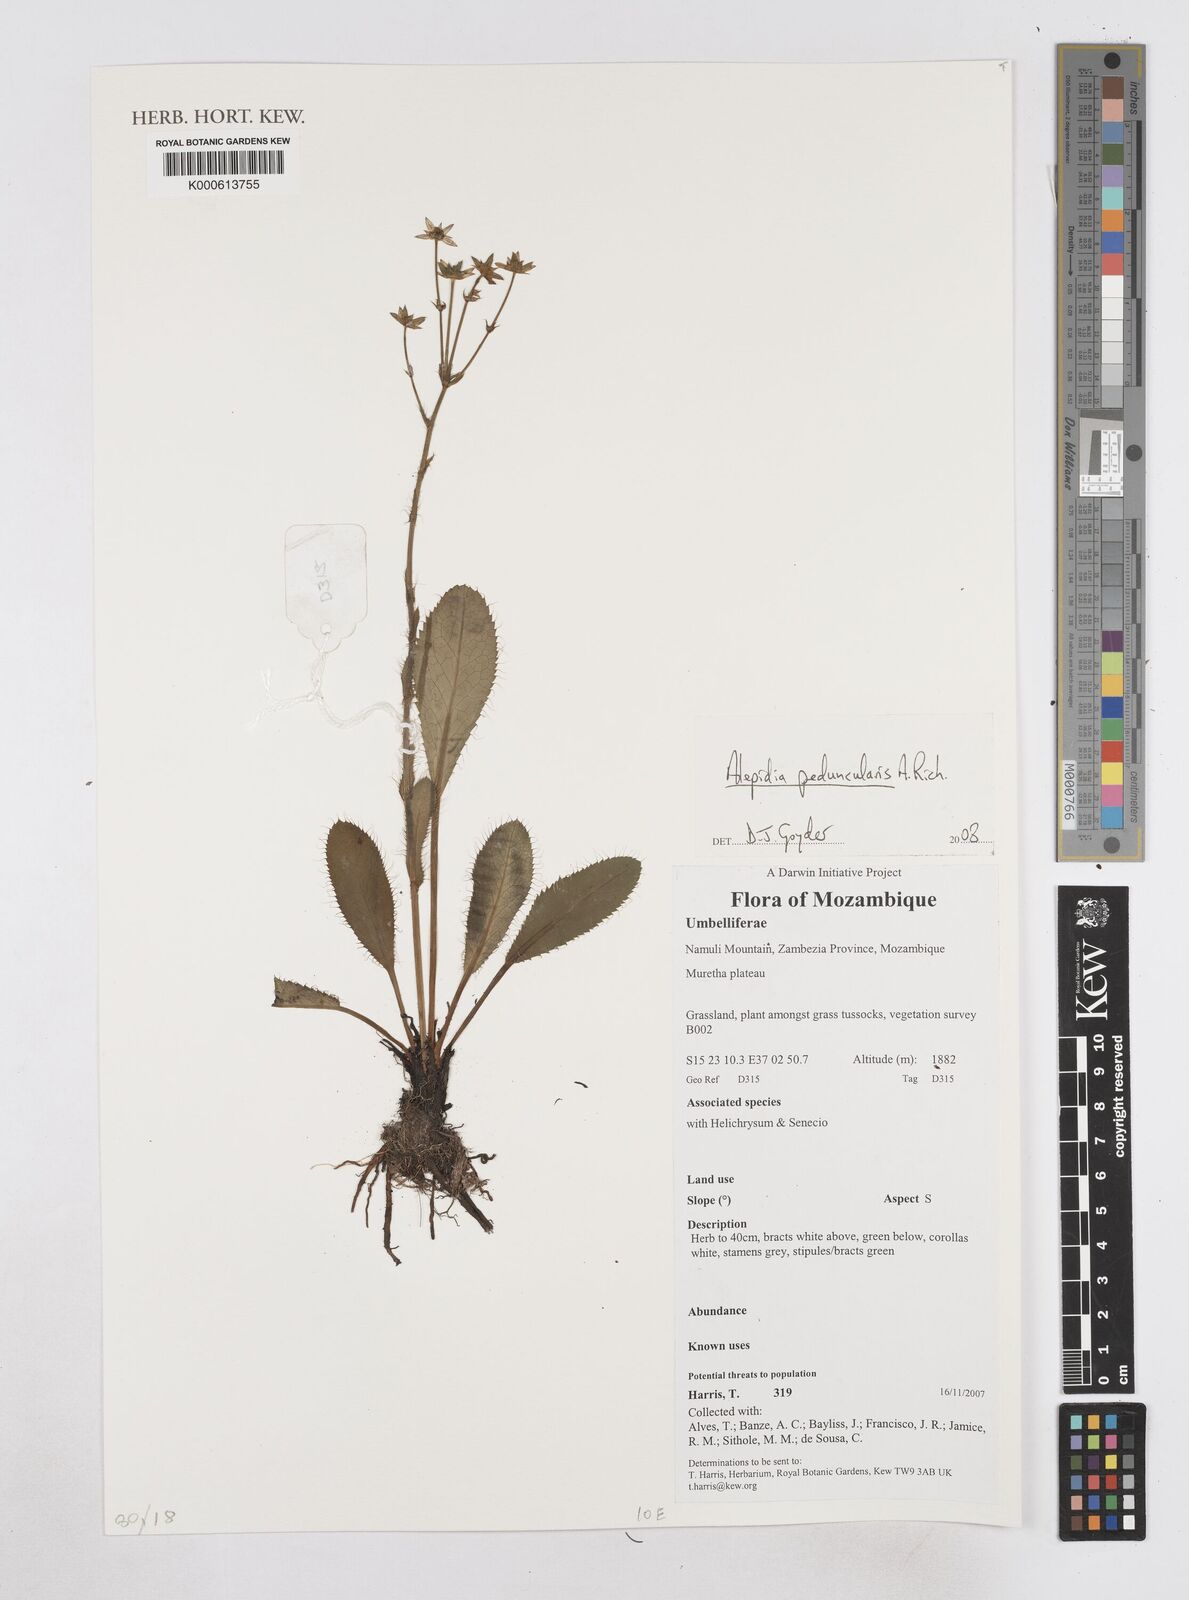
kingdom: Plantae
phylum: Tracheophyta
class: Magnoliopsida
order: Apiales
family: Apiaceae
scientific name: Apiaceae
